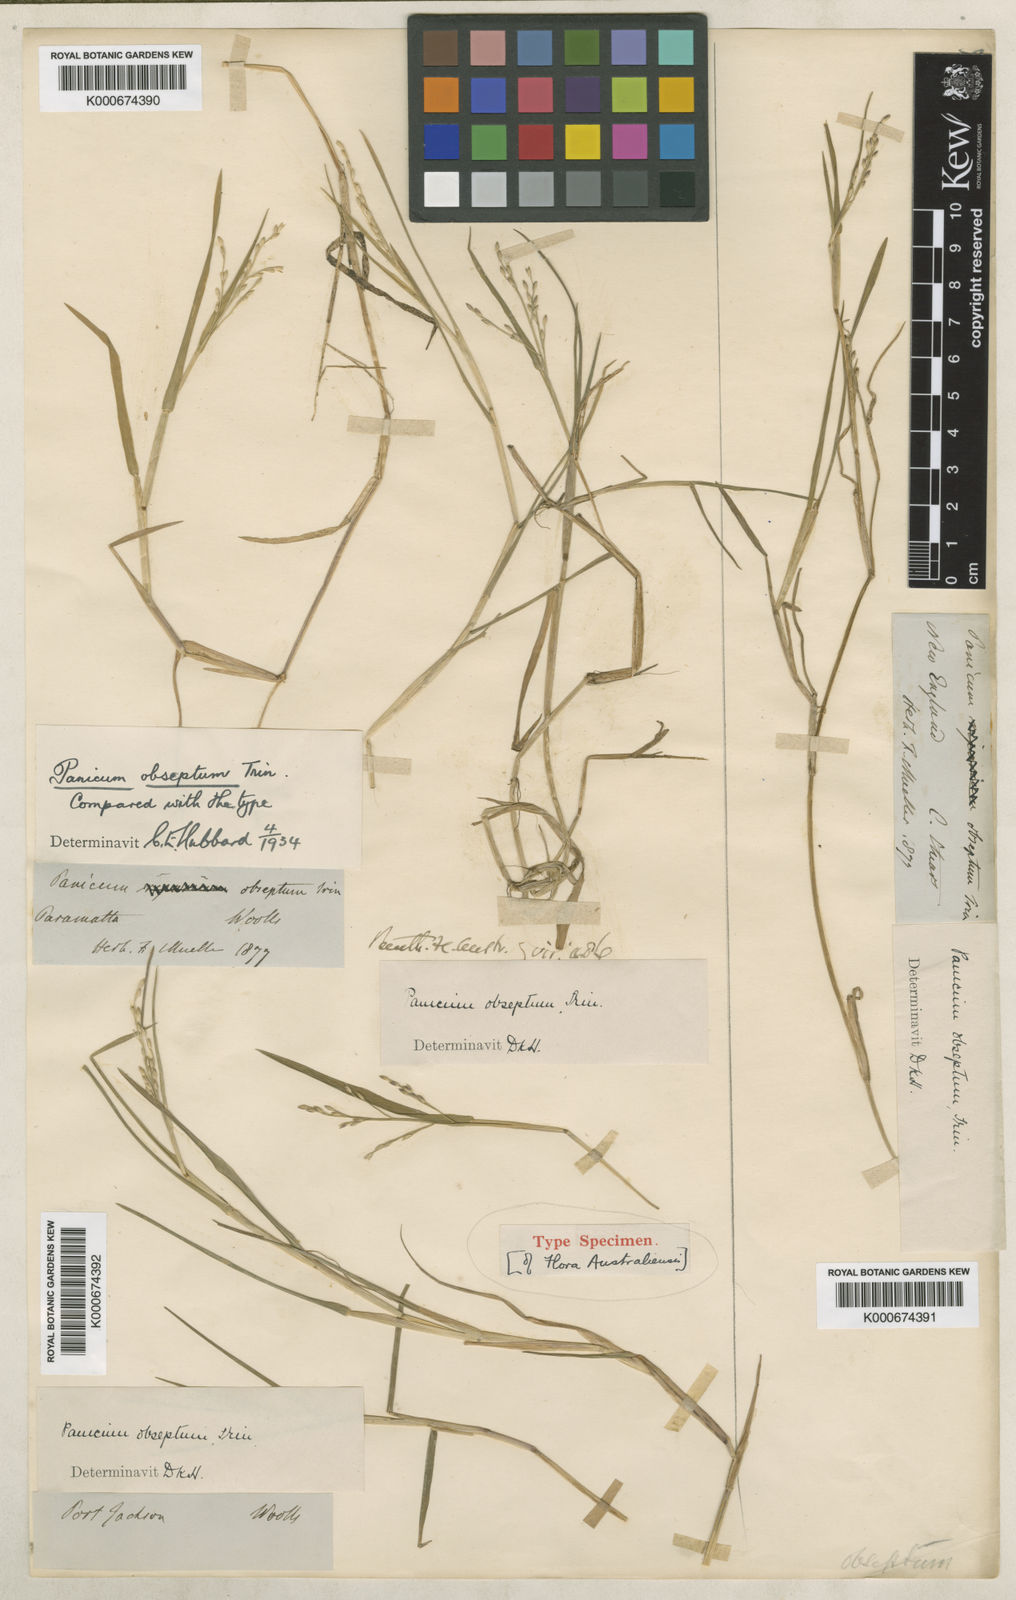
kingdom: Plantae
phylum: Tracheophyta
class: Liliopsida
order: Poales
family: Poaceae
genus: Panicum
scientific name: Panicum obseptum
